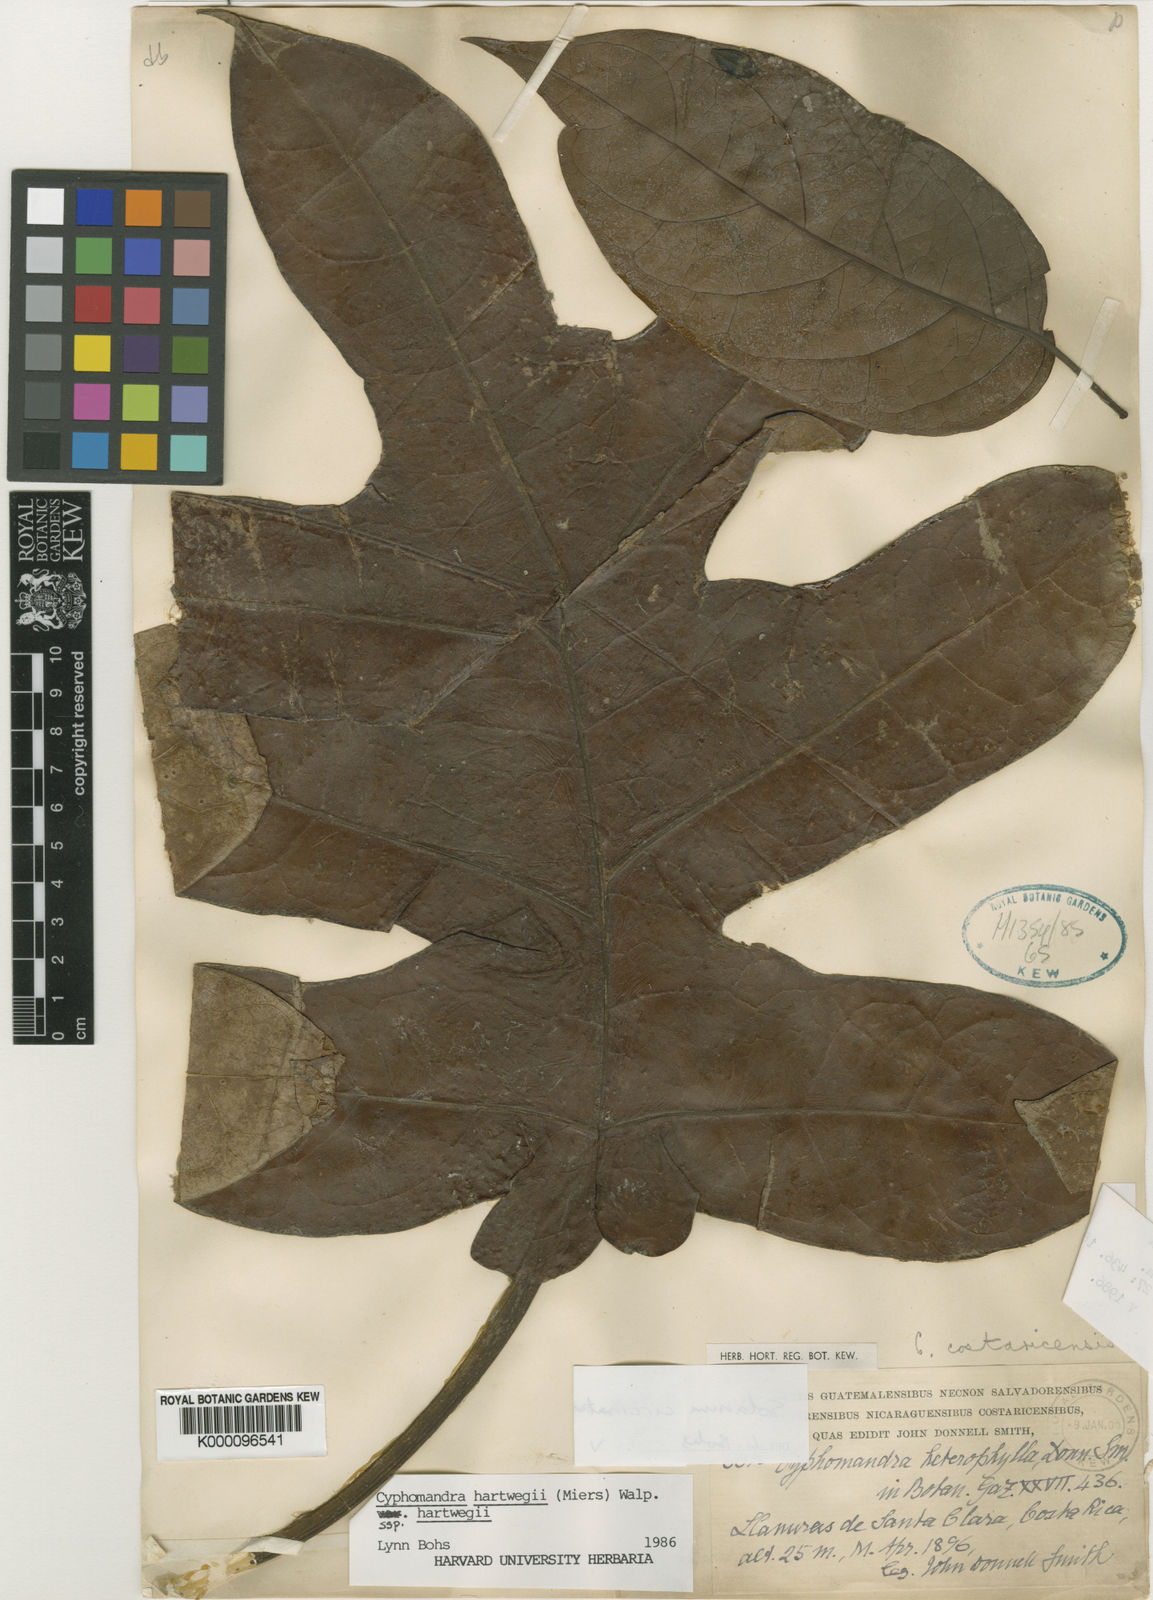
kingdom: Plantae
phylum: Tracheophyta
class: Magnoliopsida
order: Solanales
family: Solanaceae
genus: Solanum
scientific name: Solanum splendens
